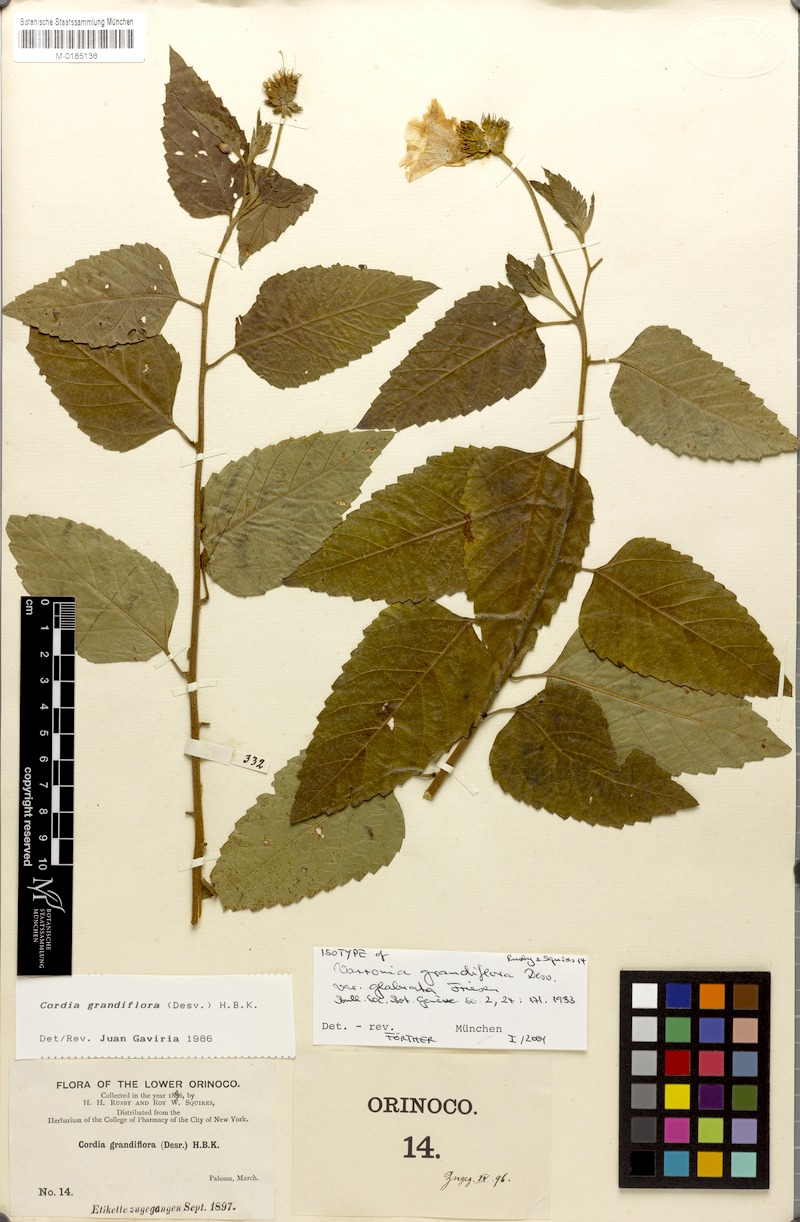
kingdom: Plantae
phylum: Tracheophyta
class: Magnoliopsida
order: Boraginales
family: Cordiaceae
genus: Varronia
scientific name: Varronia grandiflora
